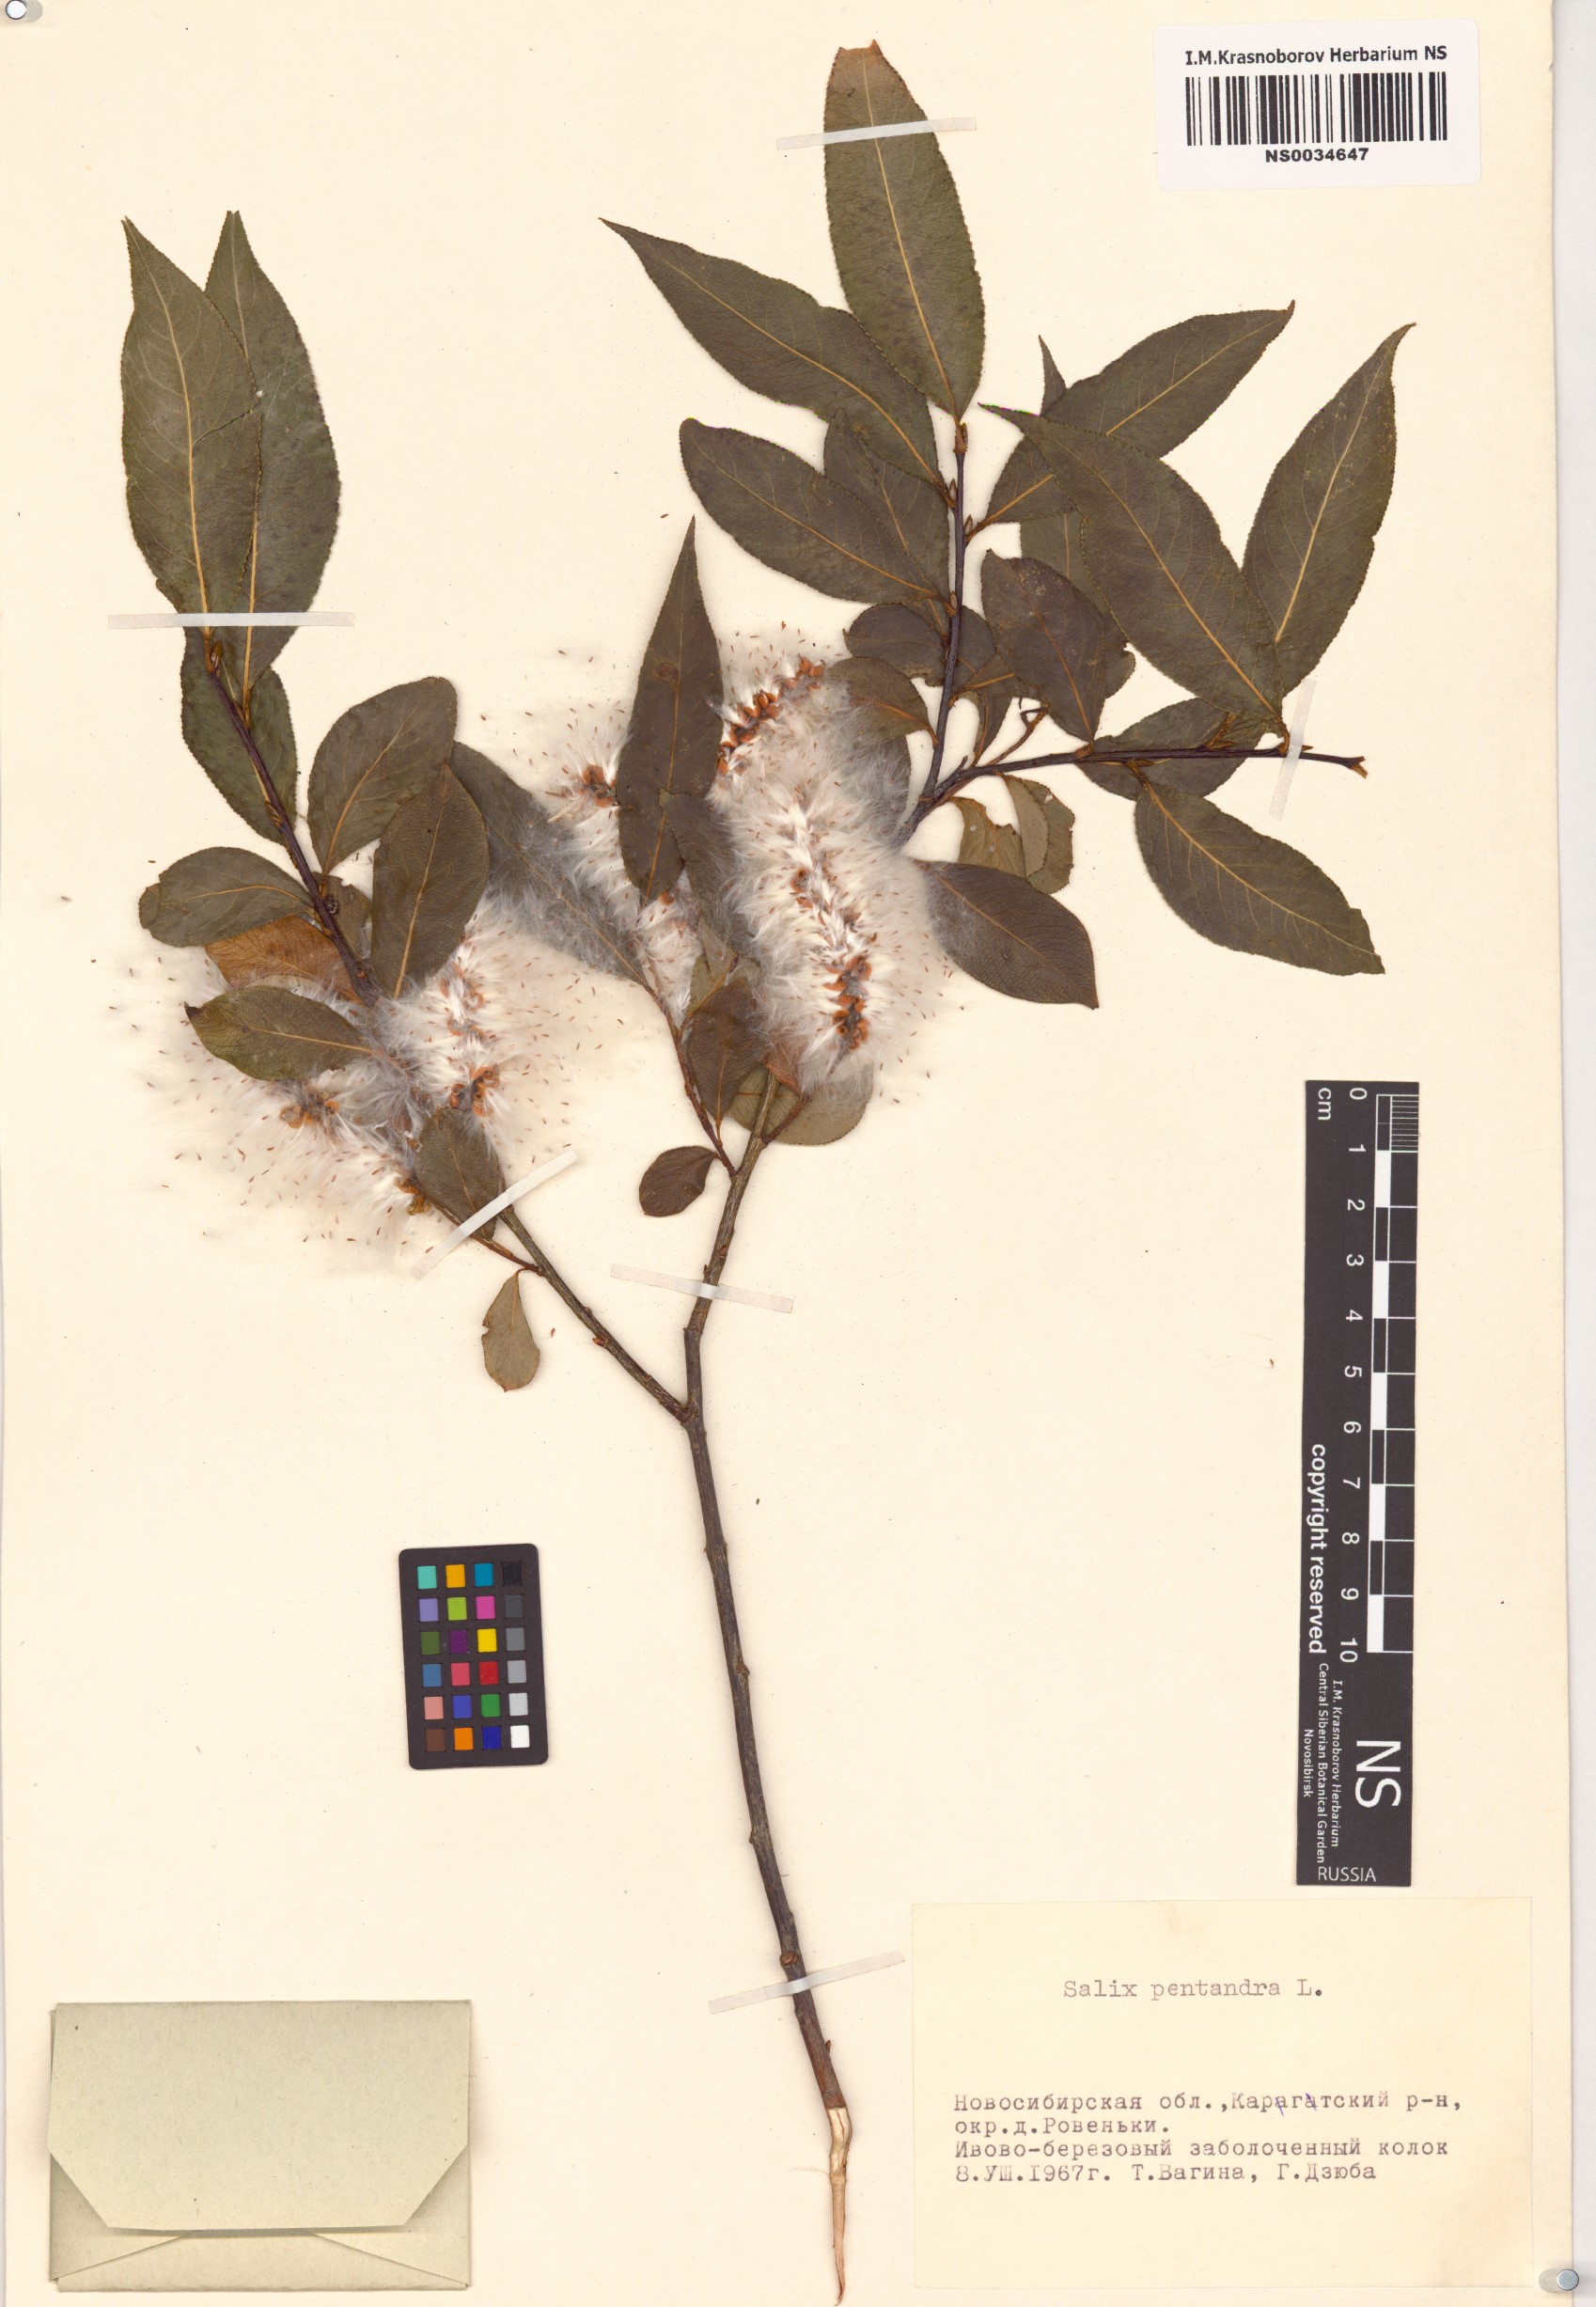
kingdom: Plantae
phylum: Tracheophyta
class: Magnoliopsida
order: Malpighiales
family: Salicaceae
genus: Salix
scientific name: Salix pentandra
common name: Bay willow
